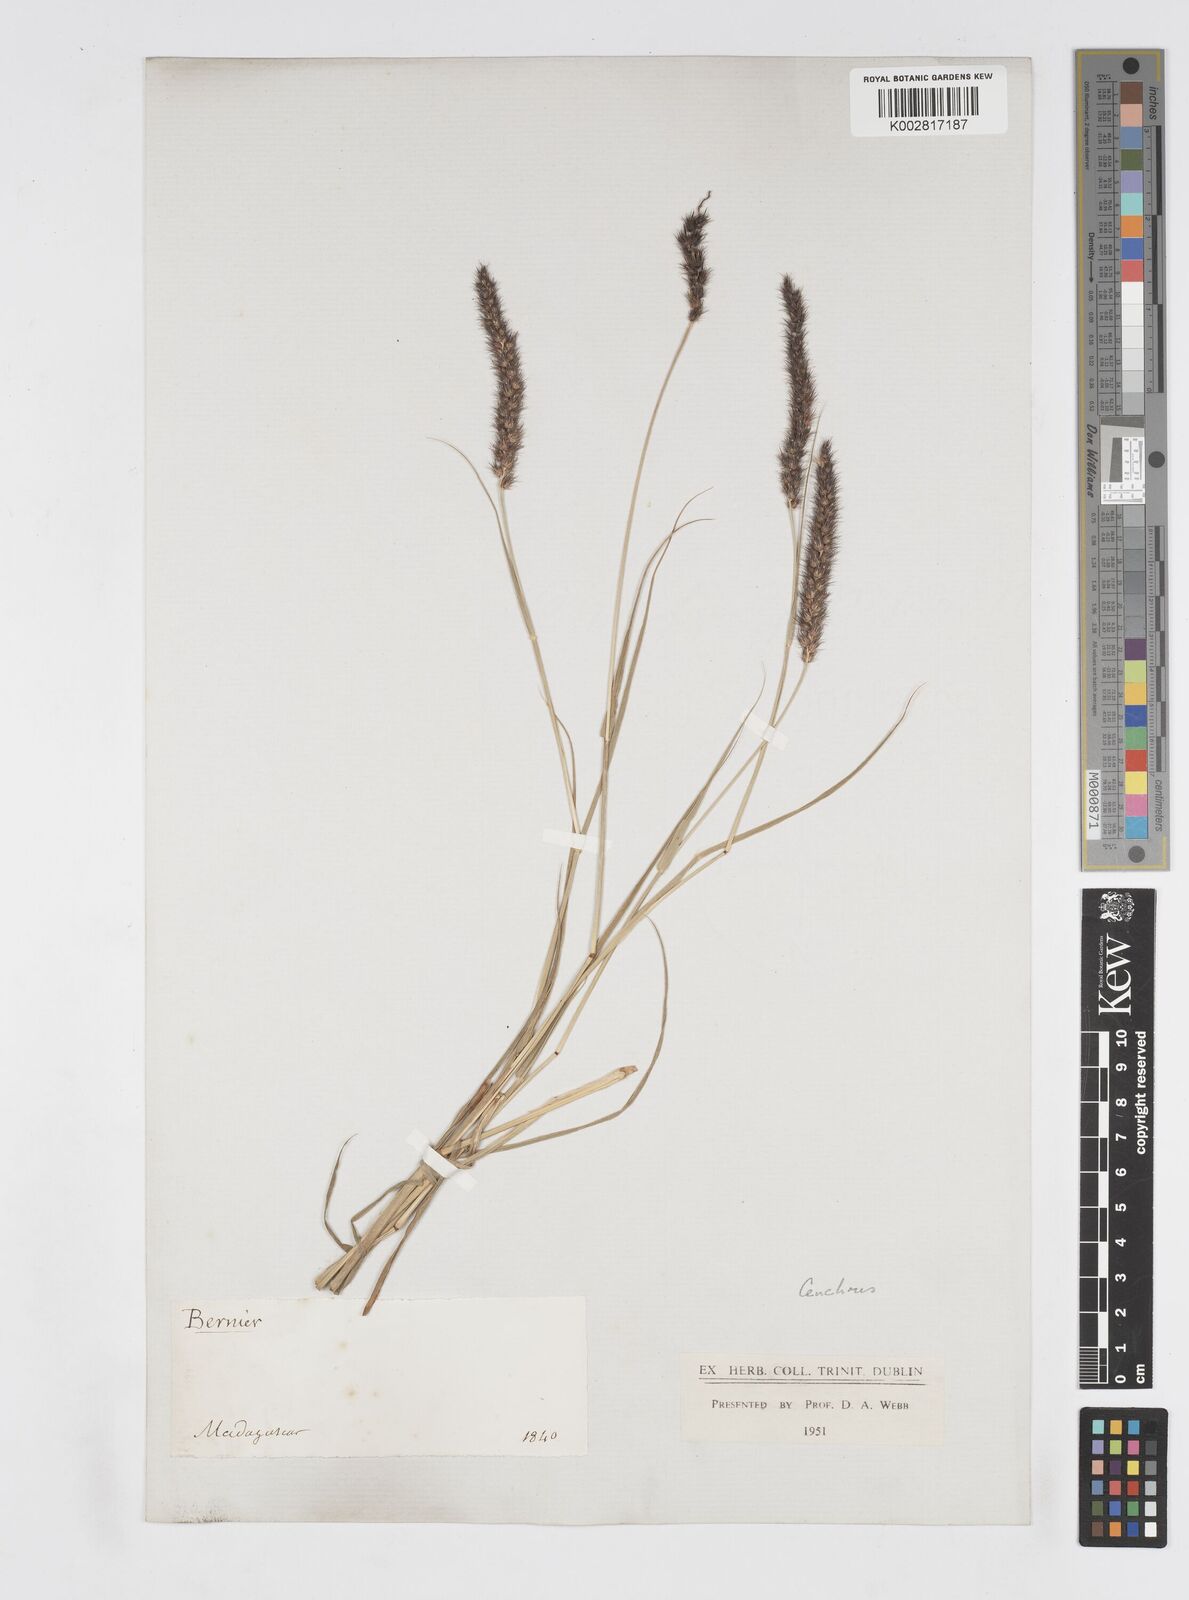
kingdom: Plantae
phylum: Tracheophyta
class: Liliopsida
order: Poales
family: Poaceae
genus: Cenchrus
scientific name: Cenchrus pennisetiformis
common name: Cloncurry
